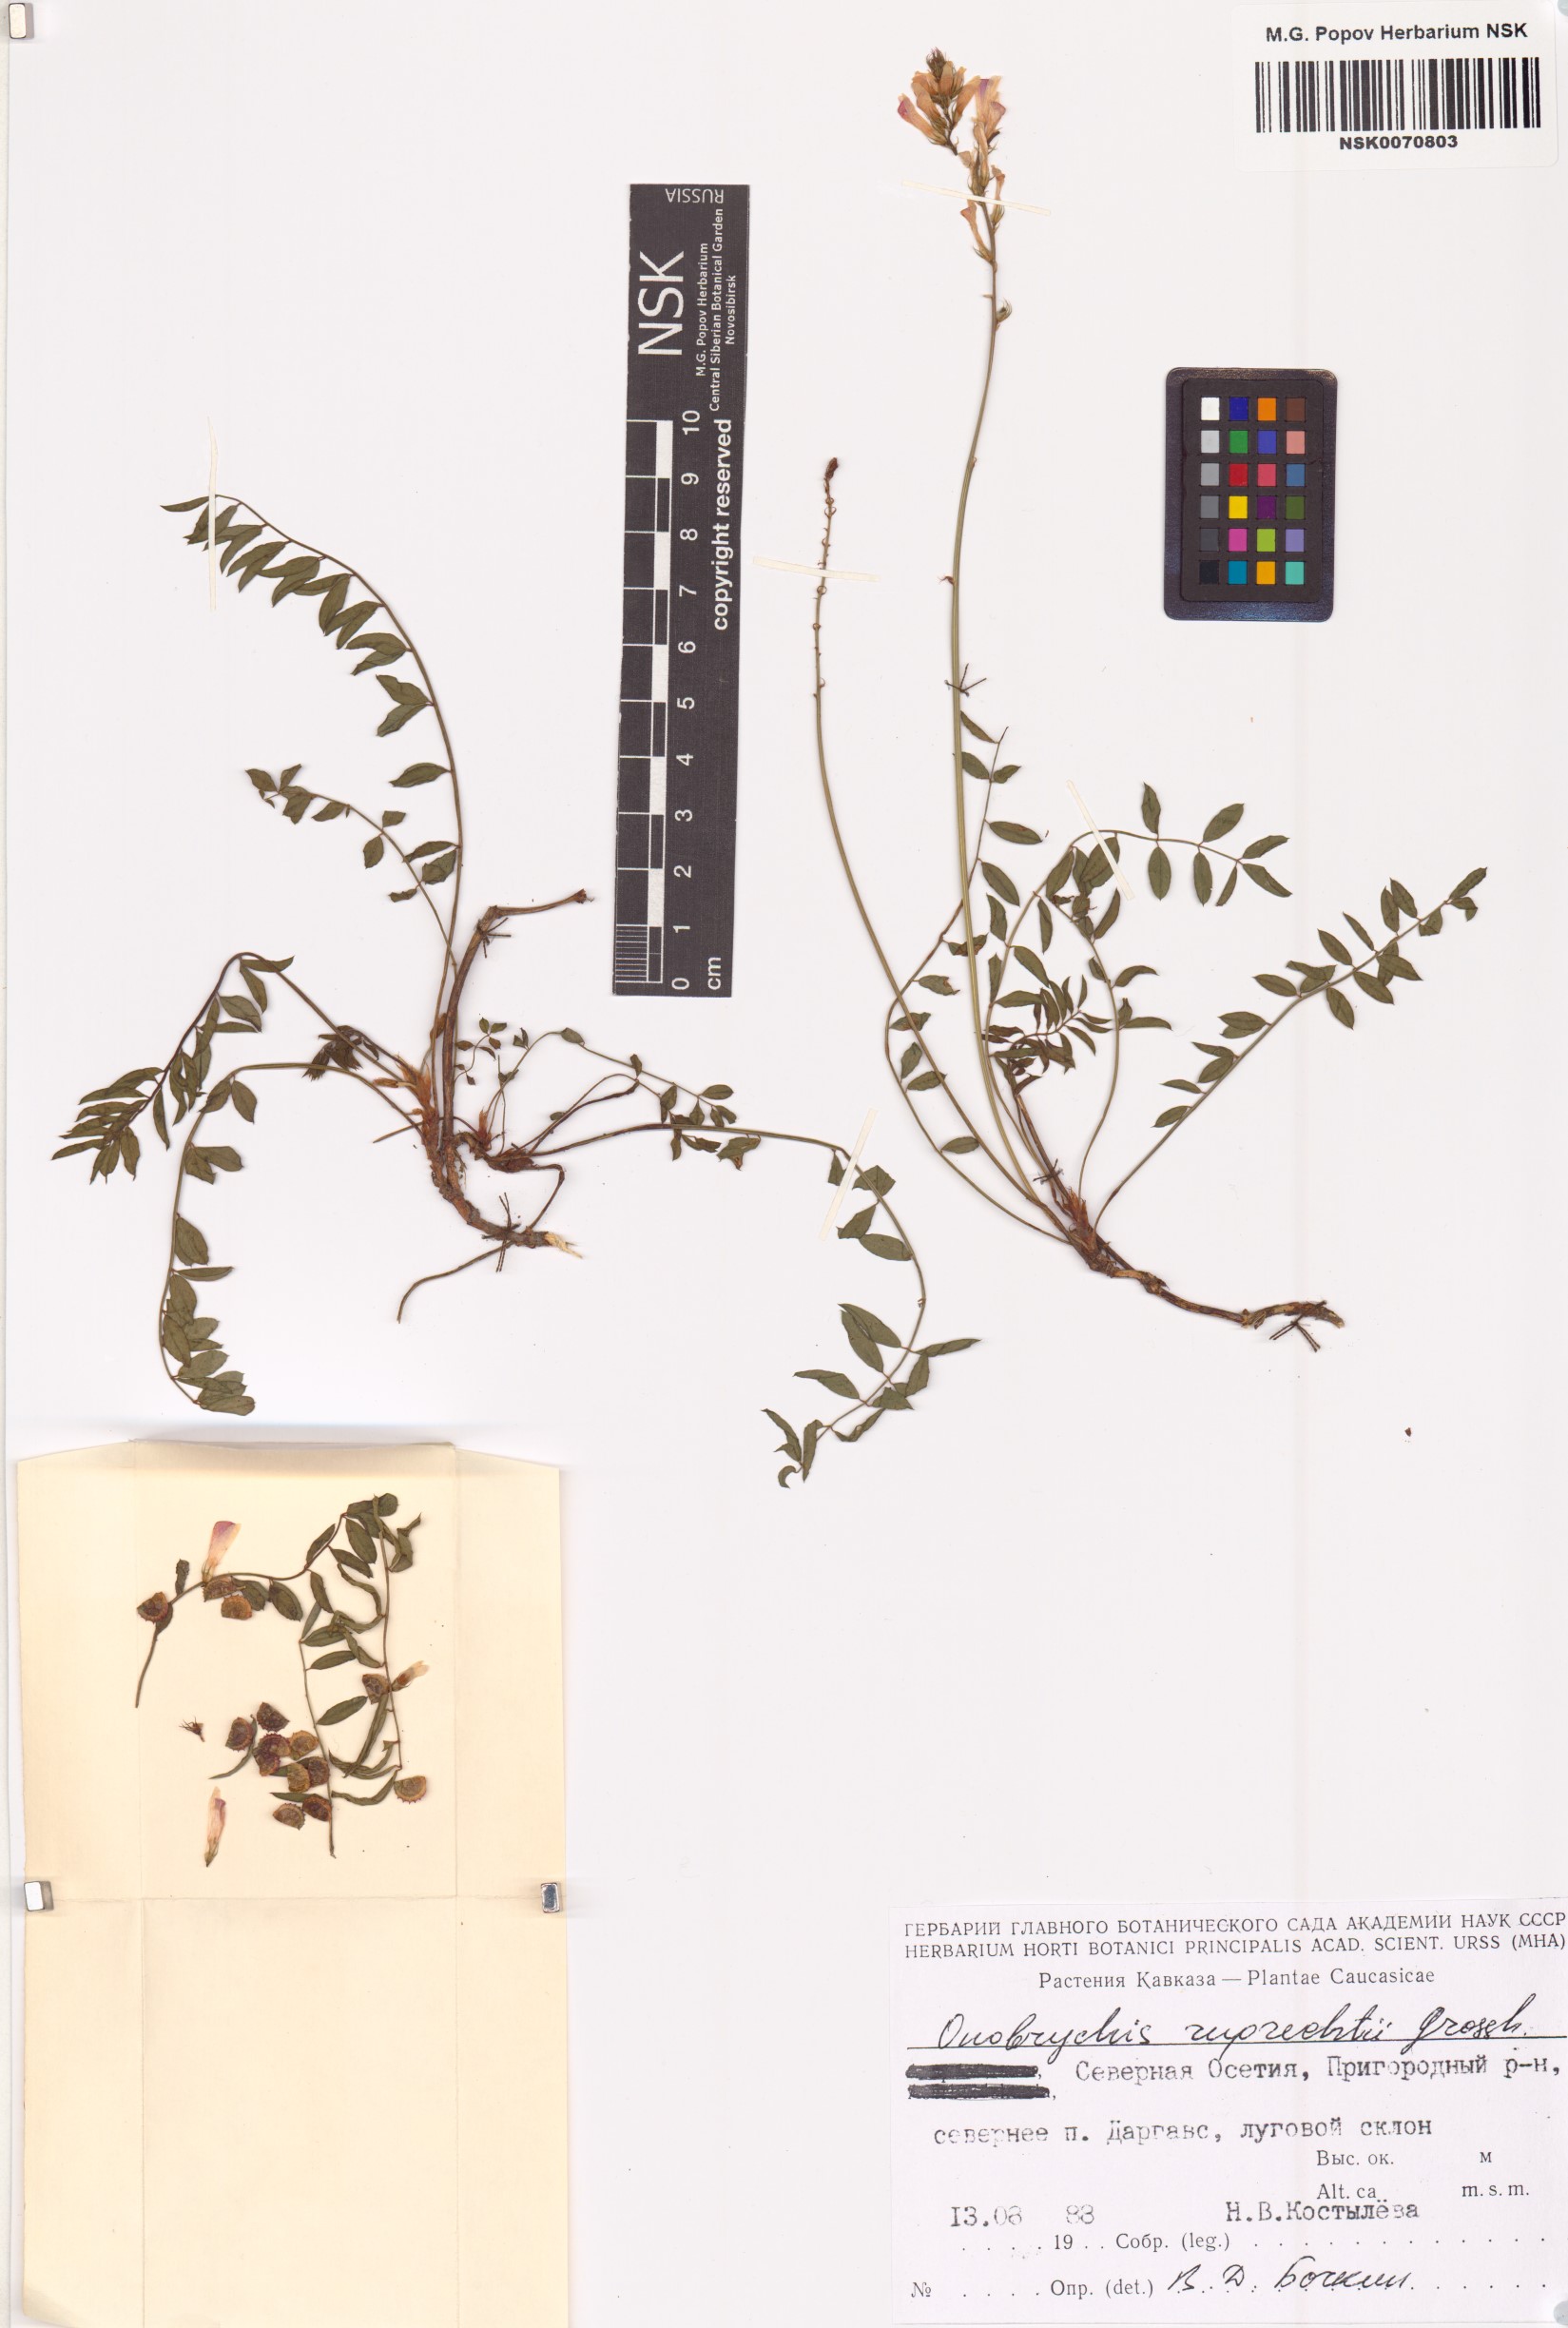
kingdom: Plantae
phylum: Tracheophyta
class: Magnoliopsida
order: Fabales
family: Fabaceae
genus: Onobrychis
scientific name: Onobrychis ruprechtii
